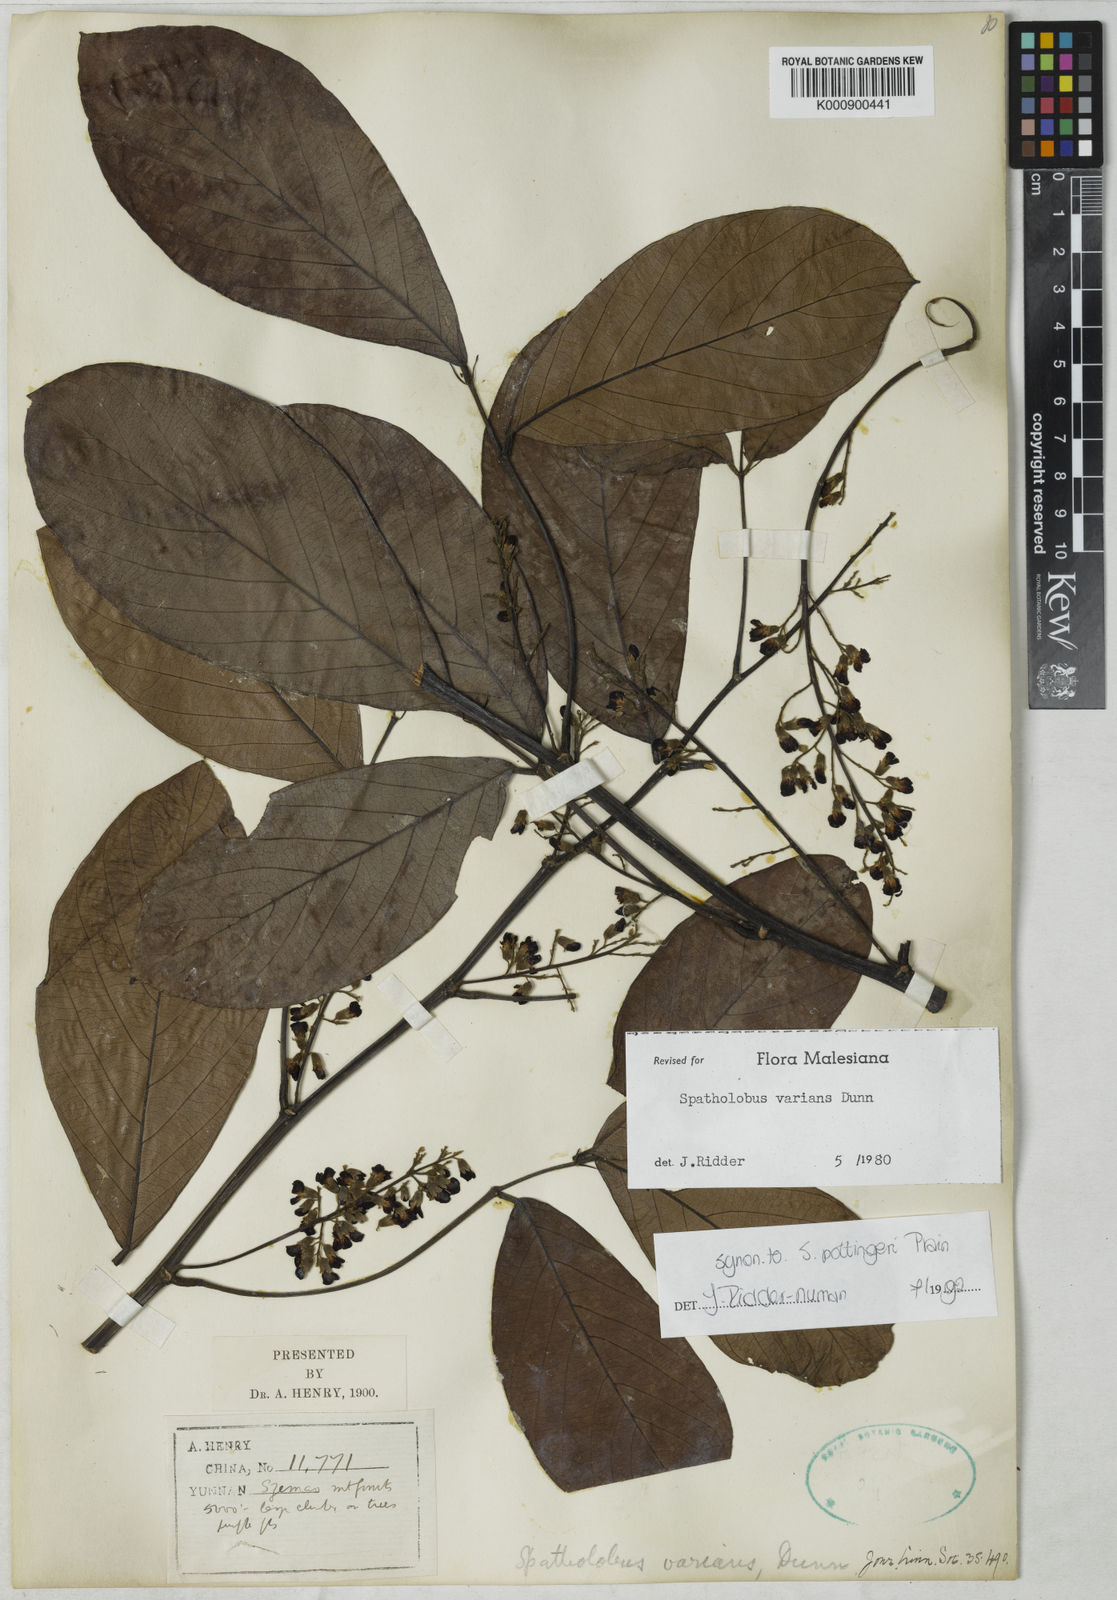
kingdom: Plantae
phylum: Tracheophyta
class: Magnoliopsida
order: Fabales
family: Fabaceae
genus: Spatholobus
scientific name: Spatholobus varians
